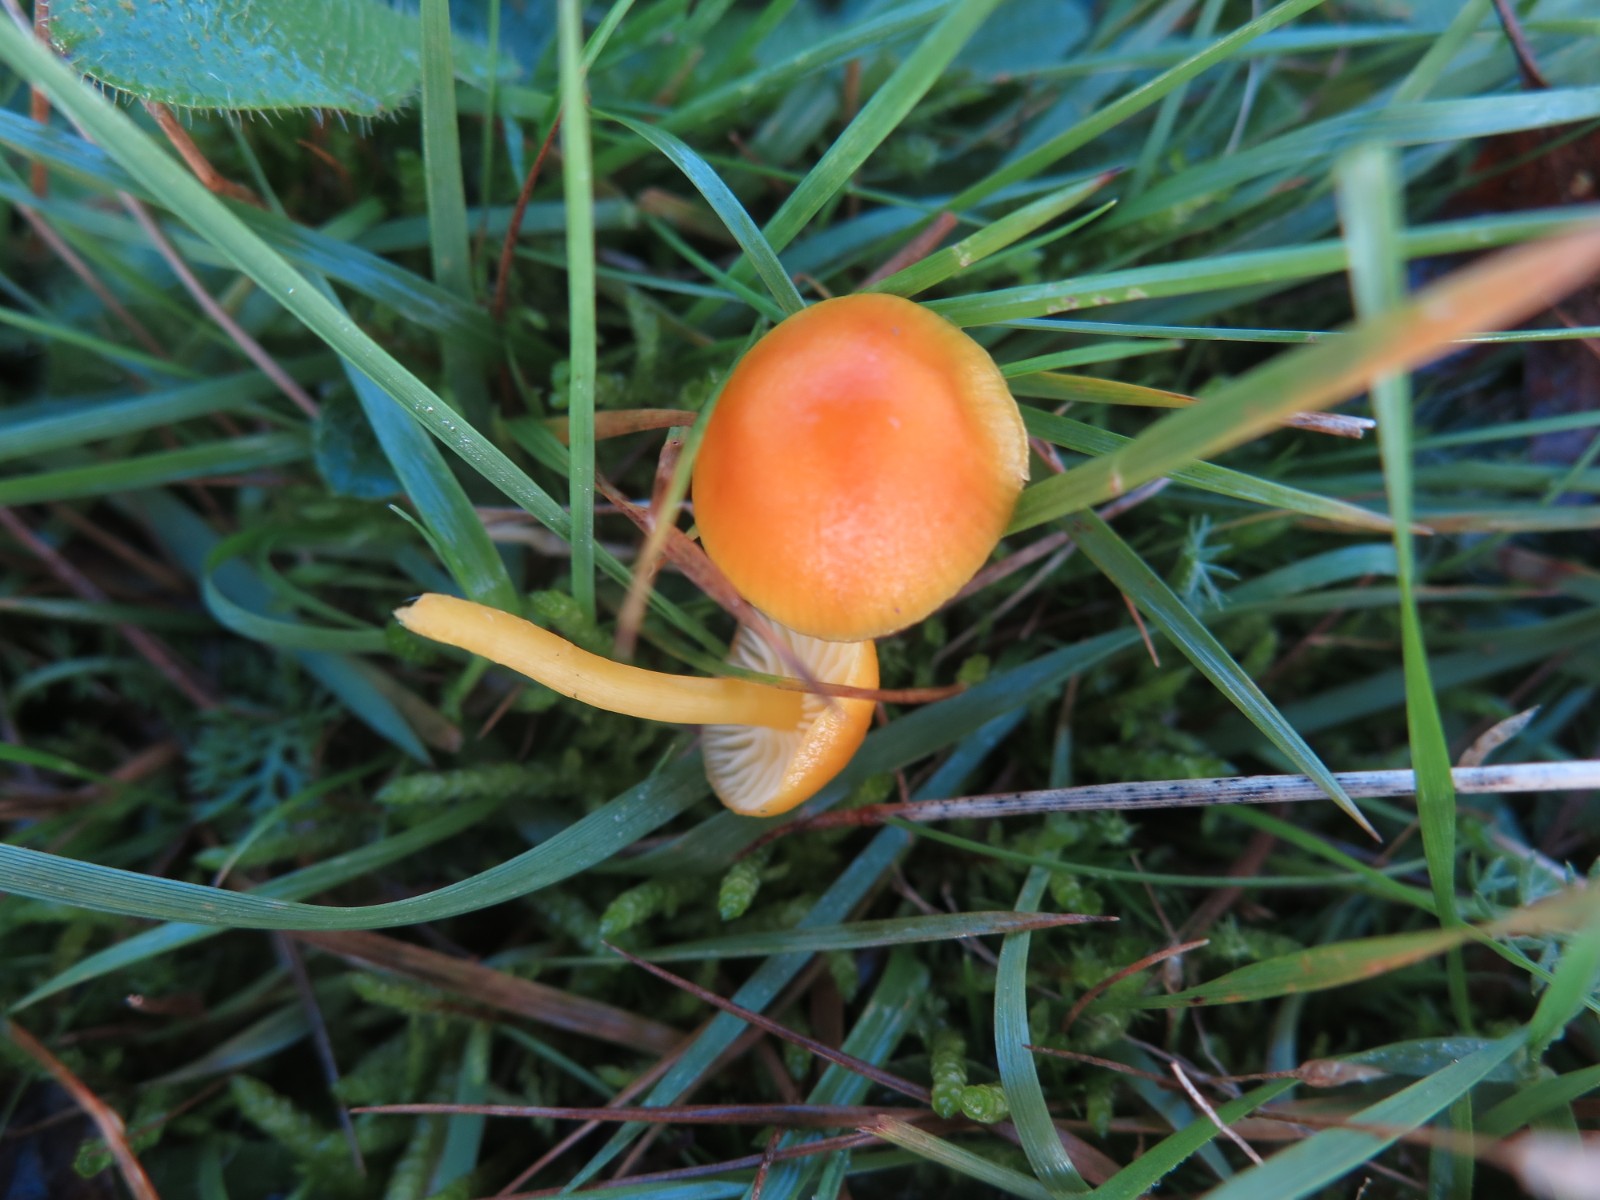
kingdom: Fungi
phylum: Basidiomycota
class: Agaricomycetes
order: Agaricales
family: Hygrophoraceae
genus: Hygrocybe
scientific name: Hygrocybe ceracea
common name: voksgul vokshat
